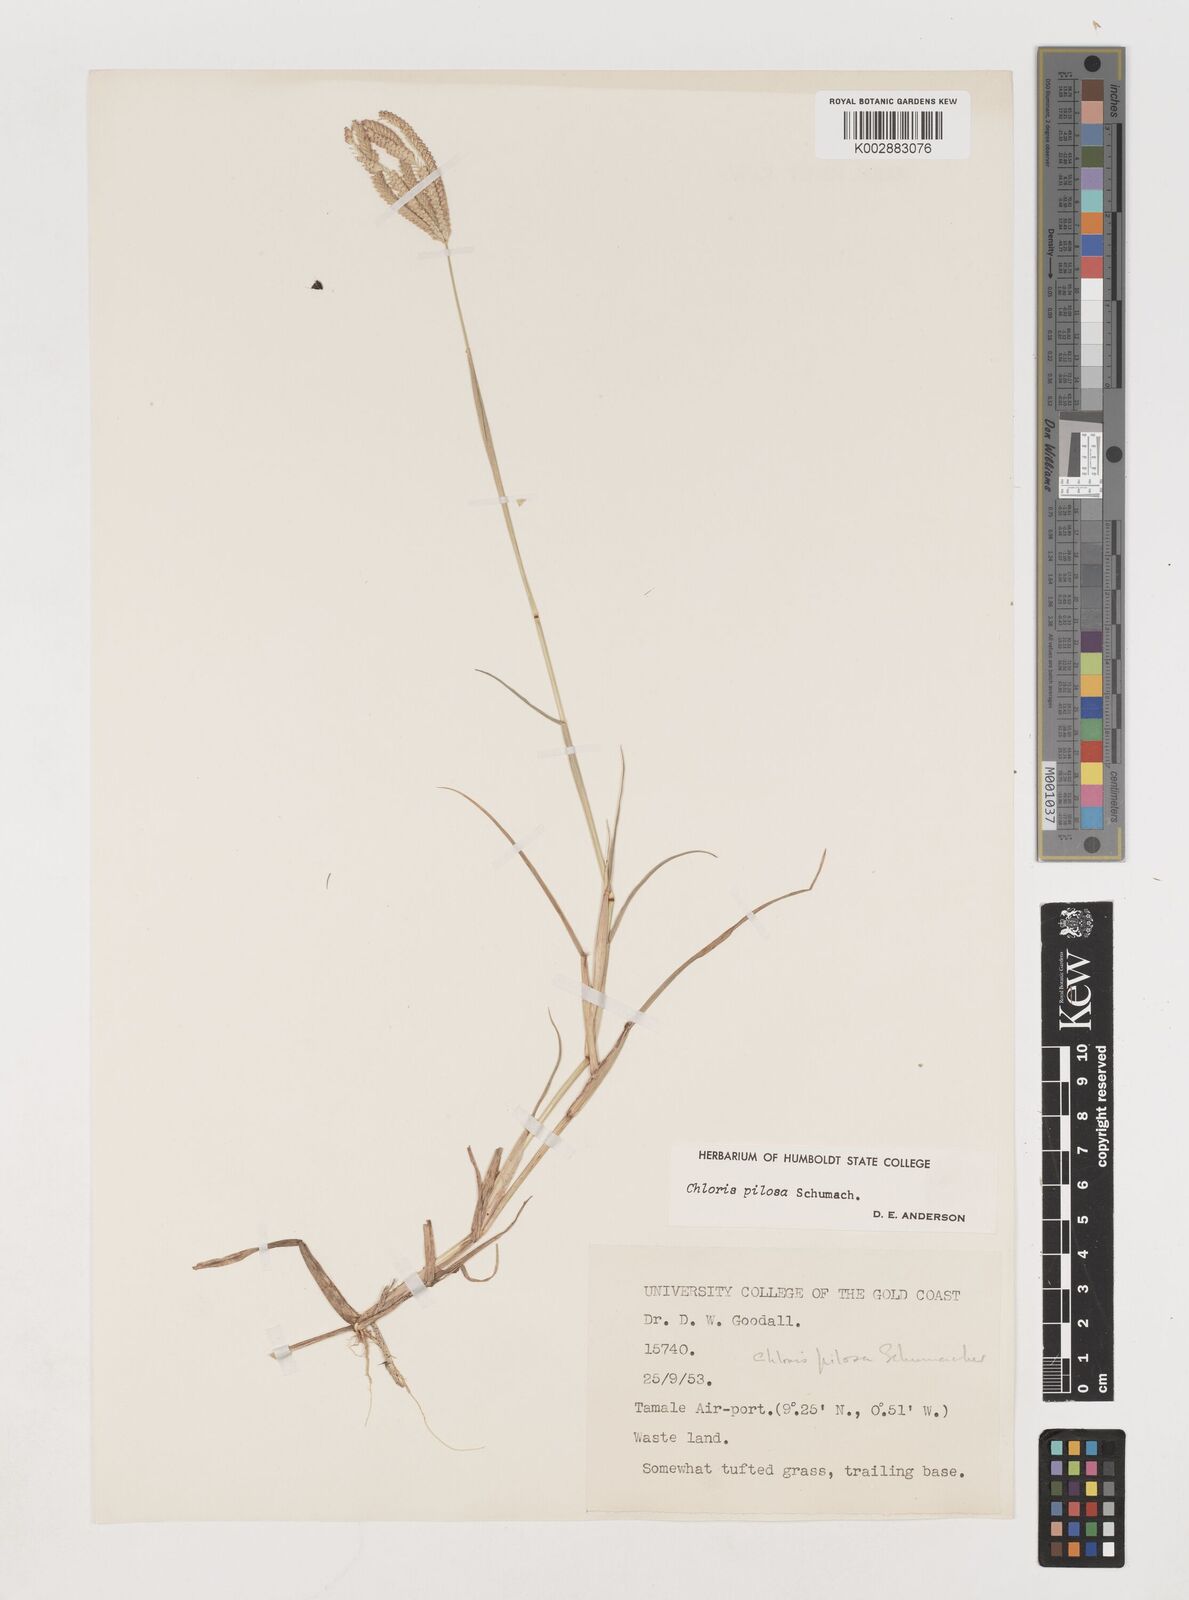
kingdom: Plantae
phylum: Tracheophyta
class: Liliopsida
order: Poales
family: Poaceae
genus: Chloris
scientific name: Chloris pilosa
